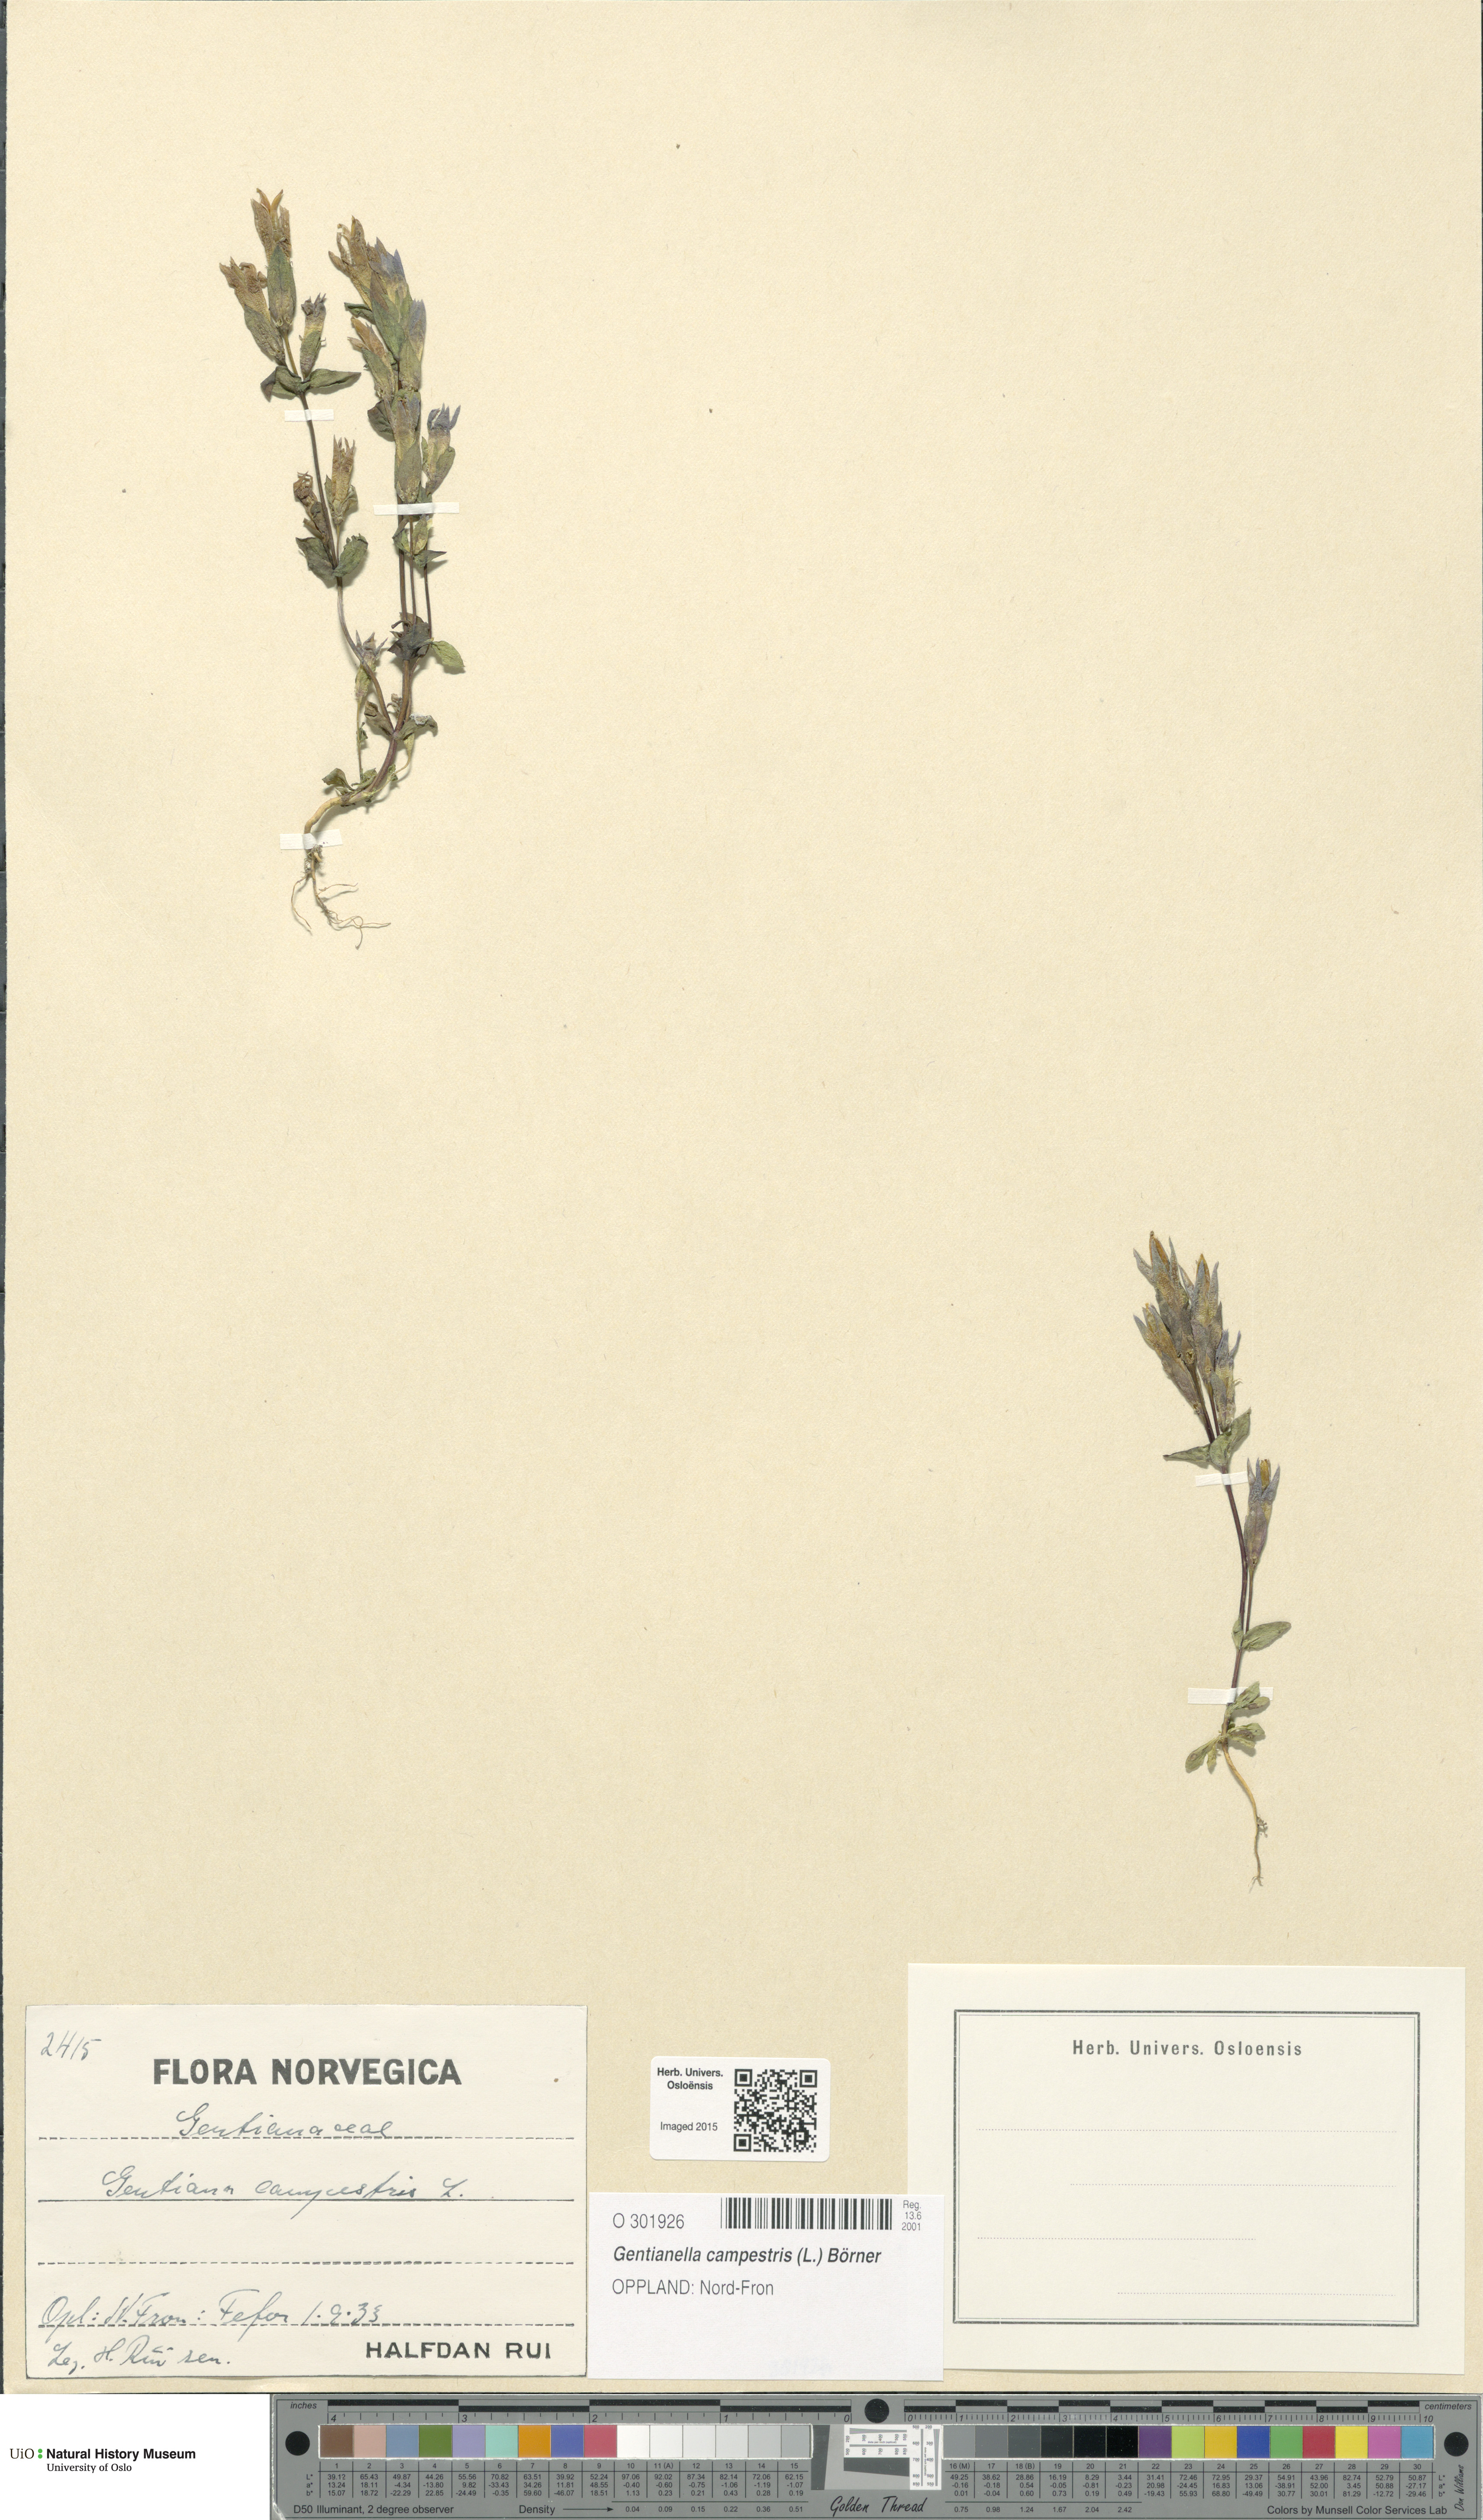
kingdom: Plantae
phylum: Tracheophyta
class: Magnoliopsida
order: Gentianales
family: Gentianaceae
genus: Gentianella
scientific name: Gentianella campestris
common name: Field gentian
